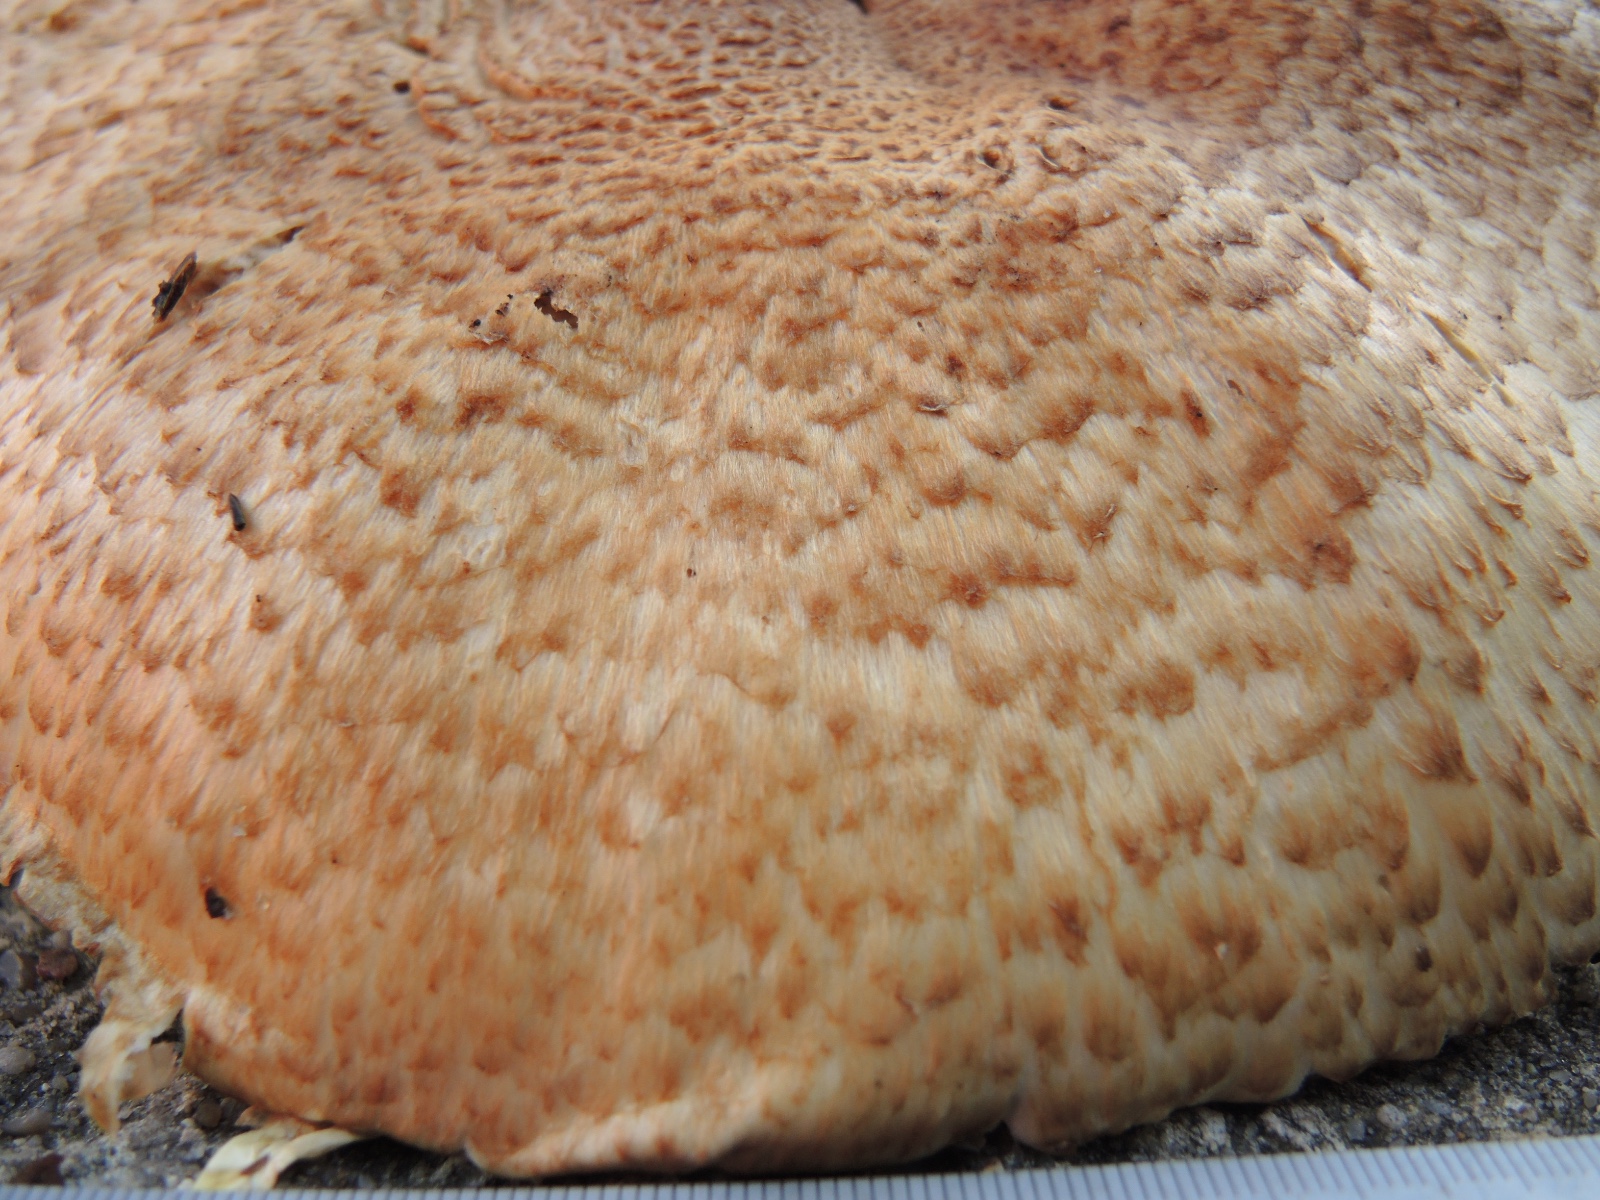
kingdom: Fungi
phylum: Basidiomycota
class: Agaricomycetes
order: Agaricales
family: Agaricaceae
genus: Agaricus
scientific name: Agaricus augustus
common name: prægtig champignon
